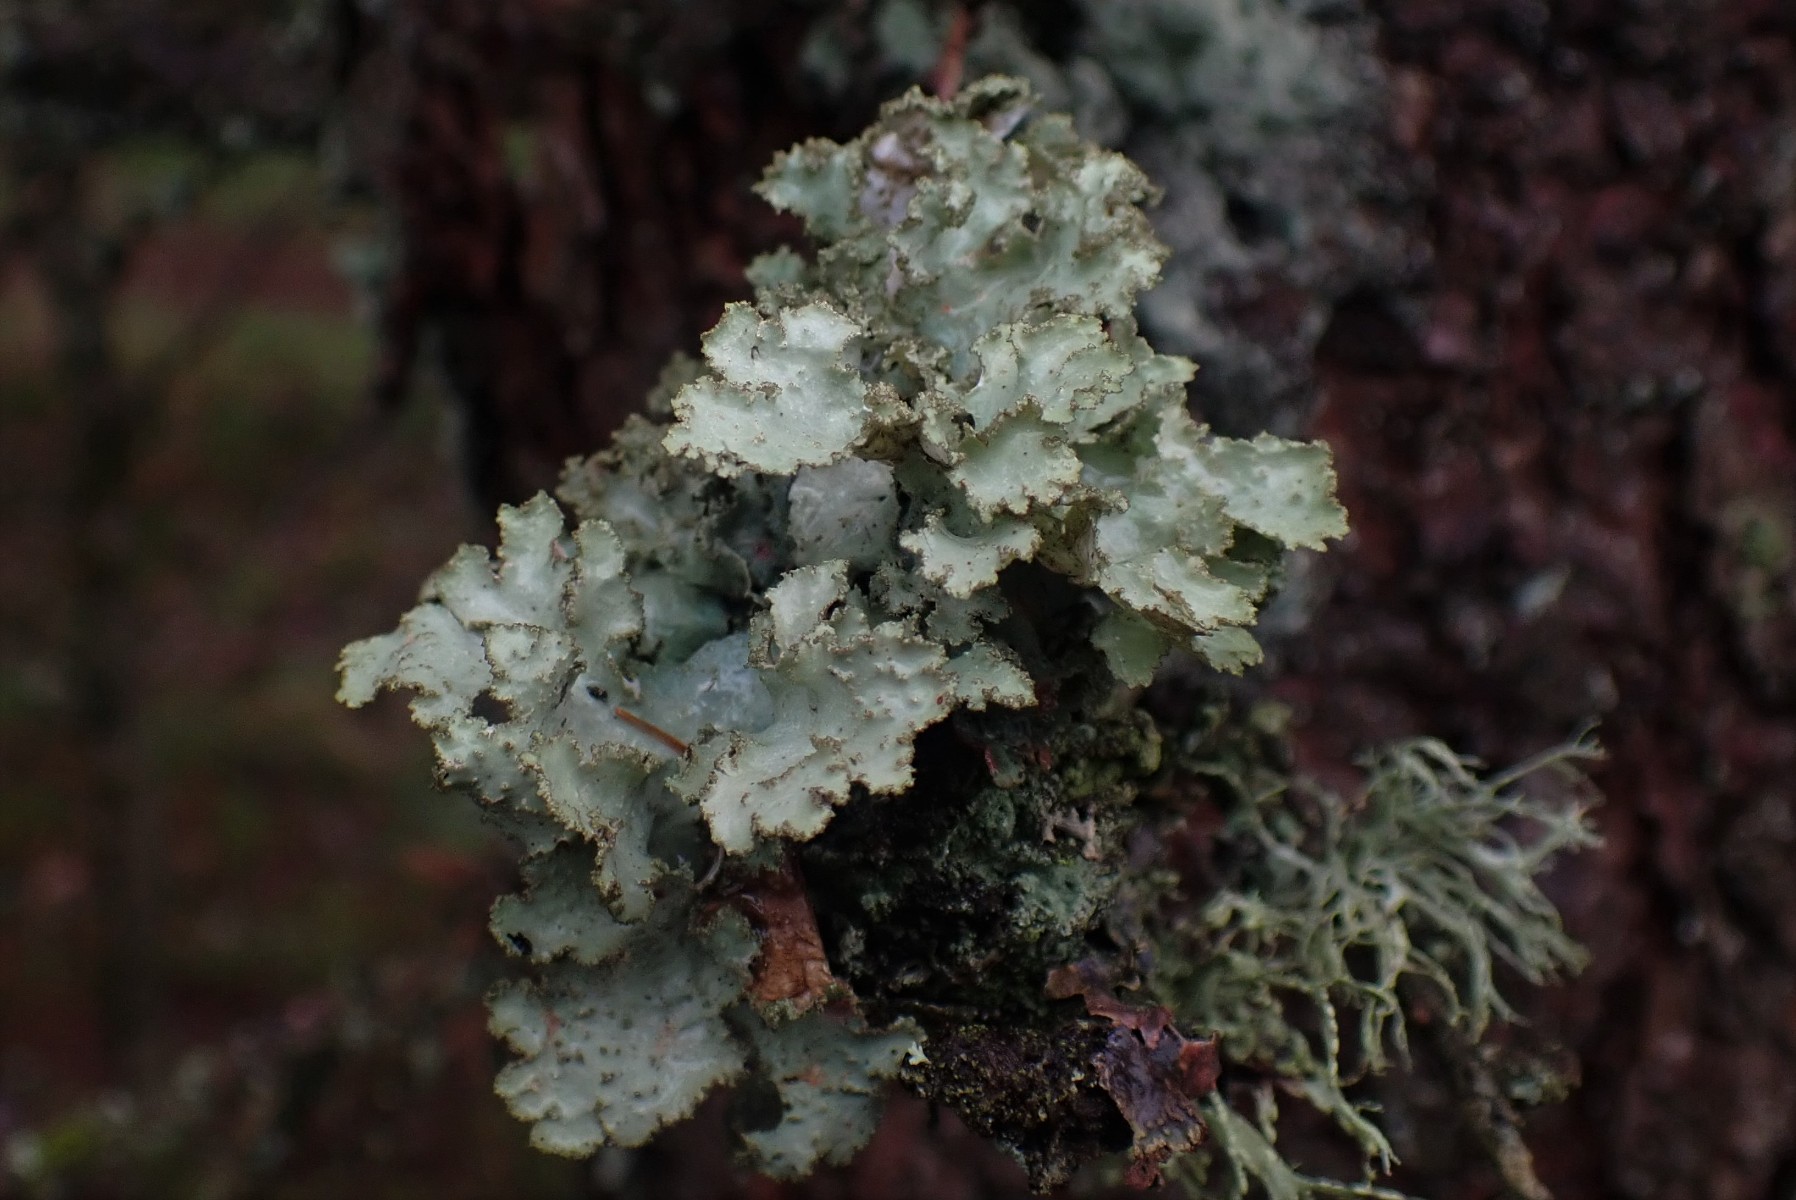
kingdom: Fungi
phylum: Ascomycota
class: Lecanoromycetes
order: Lecanorales
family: Parmeliaceae
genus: Platismatia
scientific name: Platismatia glauca
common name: blågrå papirlav
